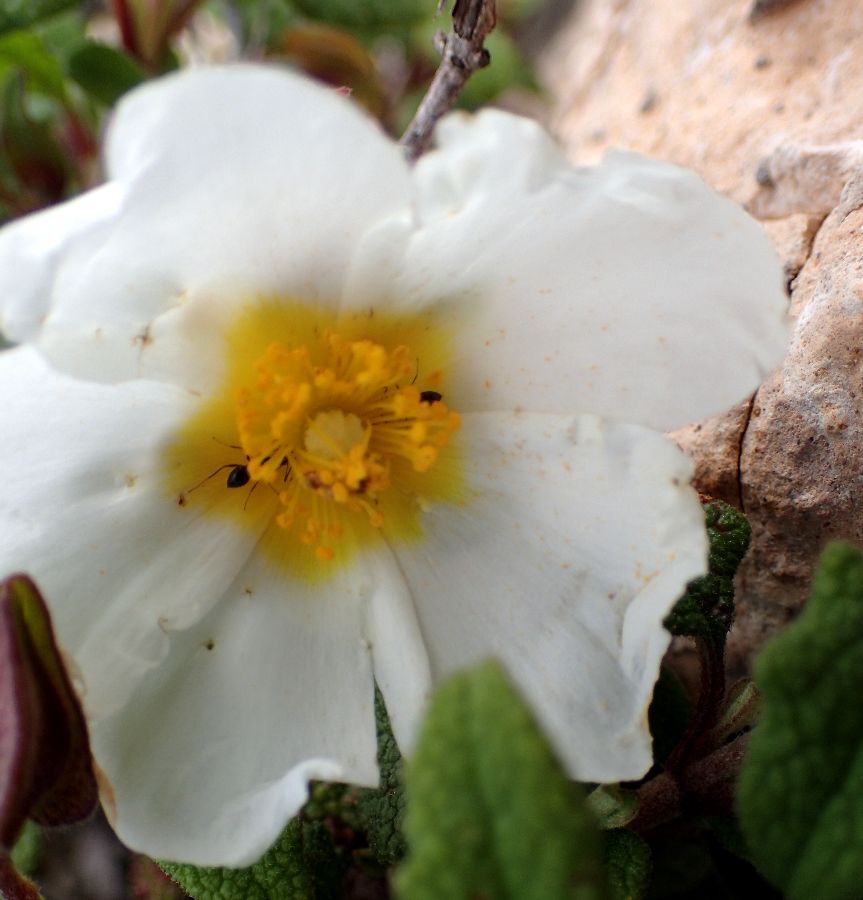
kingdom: Plantae
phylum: Tracheophyta
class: Magnoliopsida
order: Malvales
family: Cistaceae
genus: Cistus
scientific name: Cistus salviifolius
